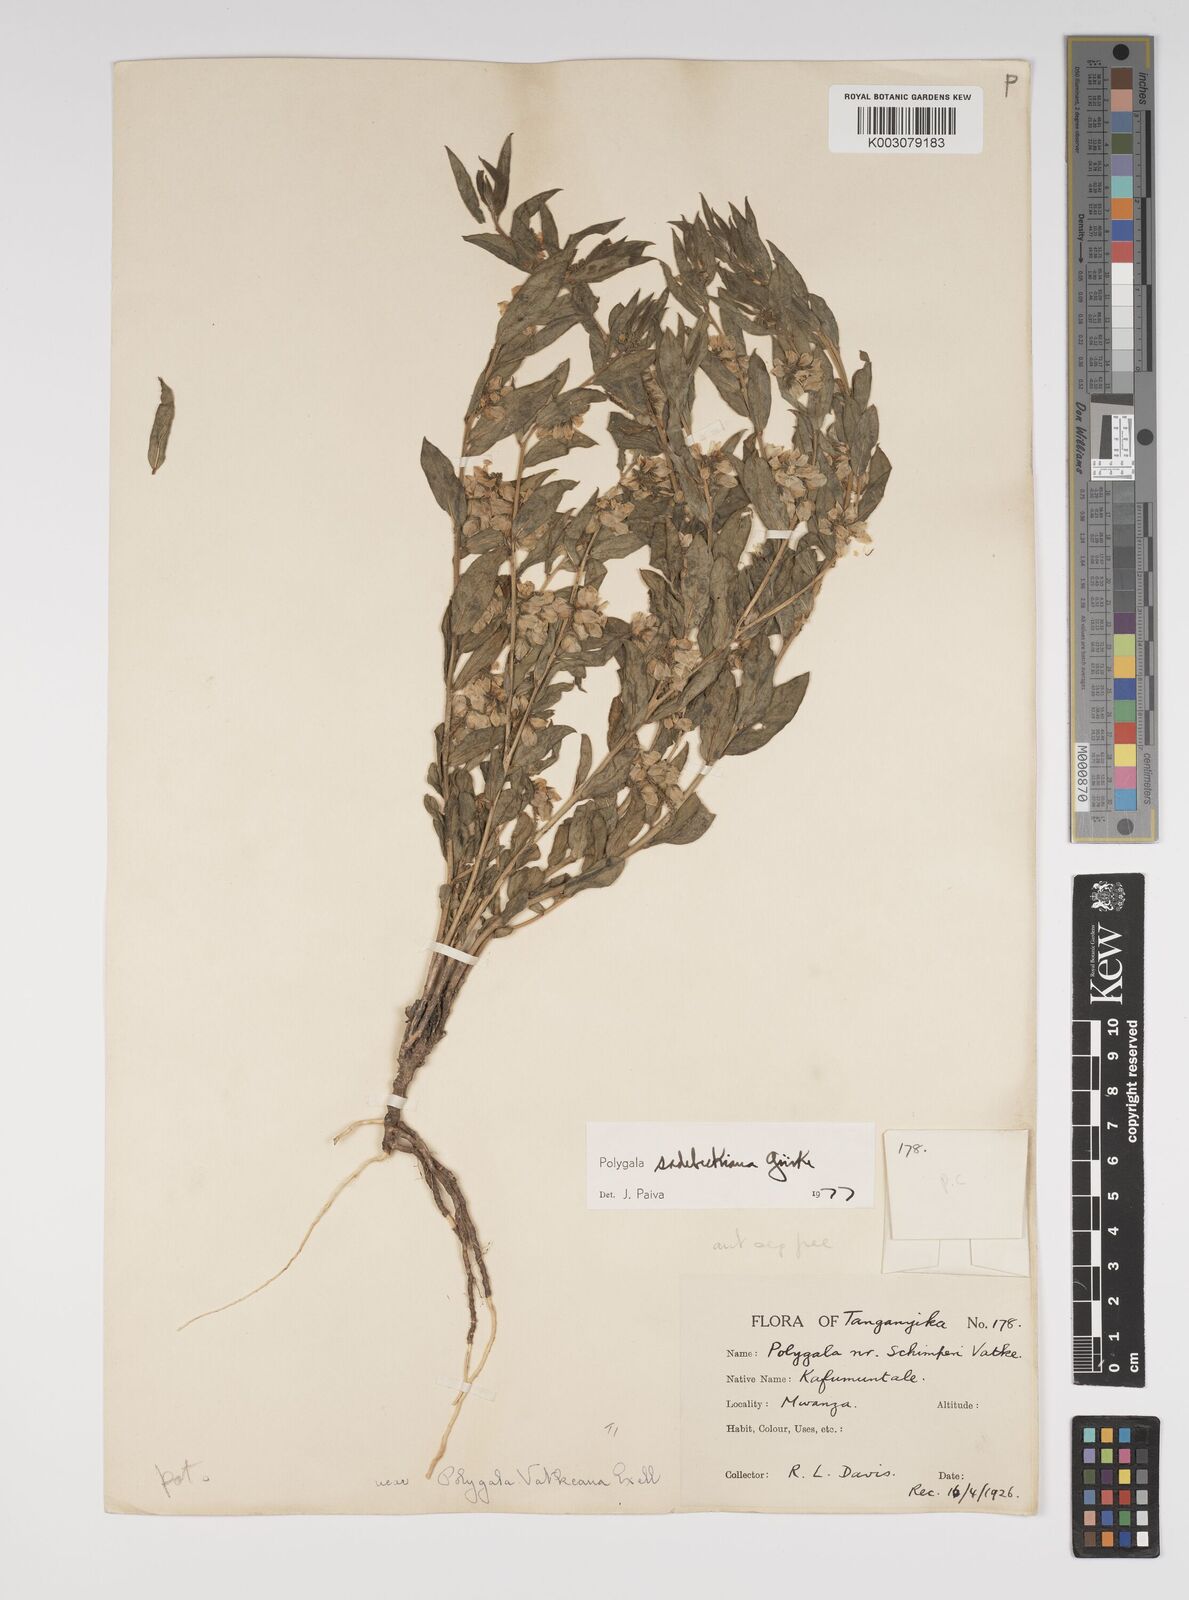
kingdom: Plantae
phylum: Tracheophyta
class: Magnoliopsida
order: Fabales
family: Polygalaceae
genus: Polygala
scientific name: Polygala sadebeckiana
